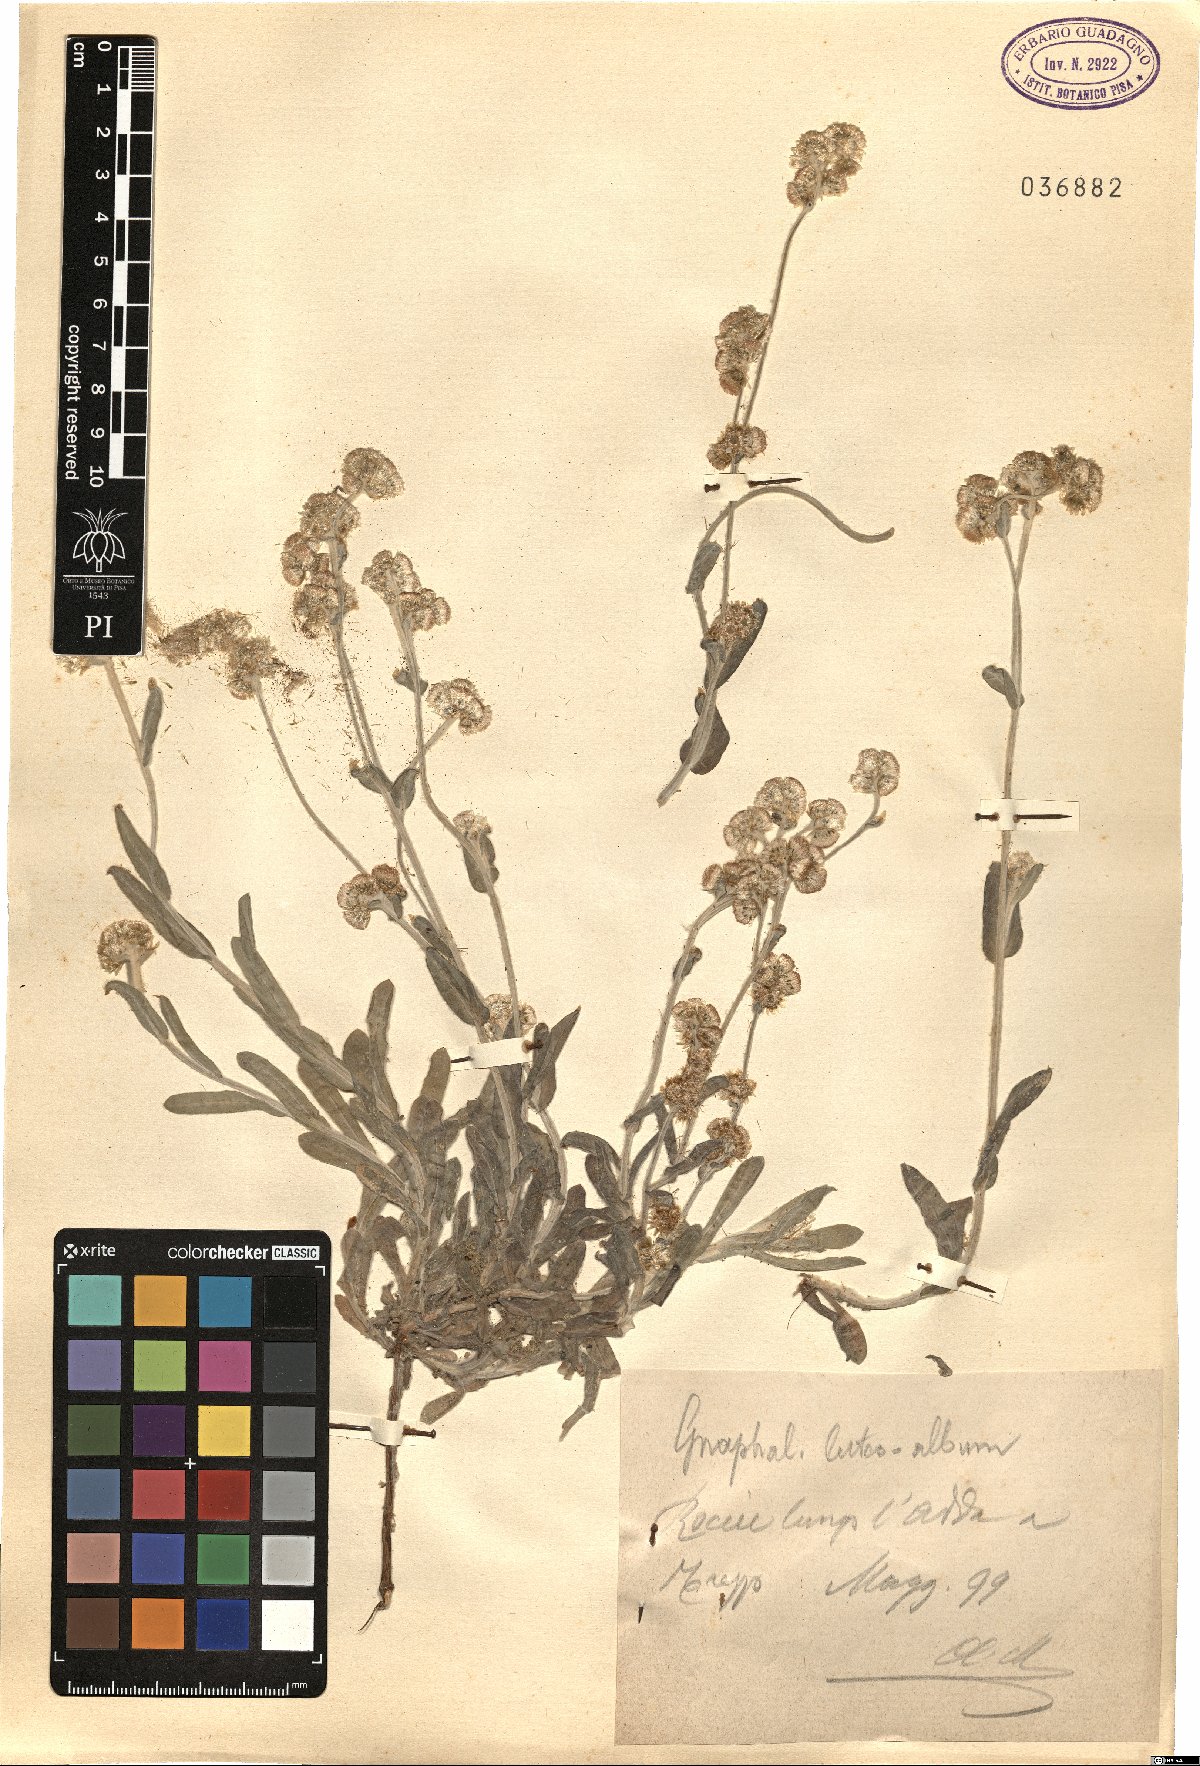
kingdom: Plantae
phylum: Tracheophyta
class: Magnoliopsida
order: Asterales
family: Asteraceae
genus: Helichrysum
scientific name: Helichrysum luteoalbum
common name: Daisy
